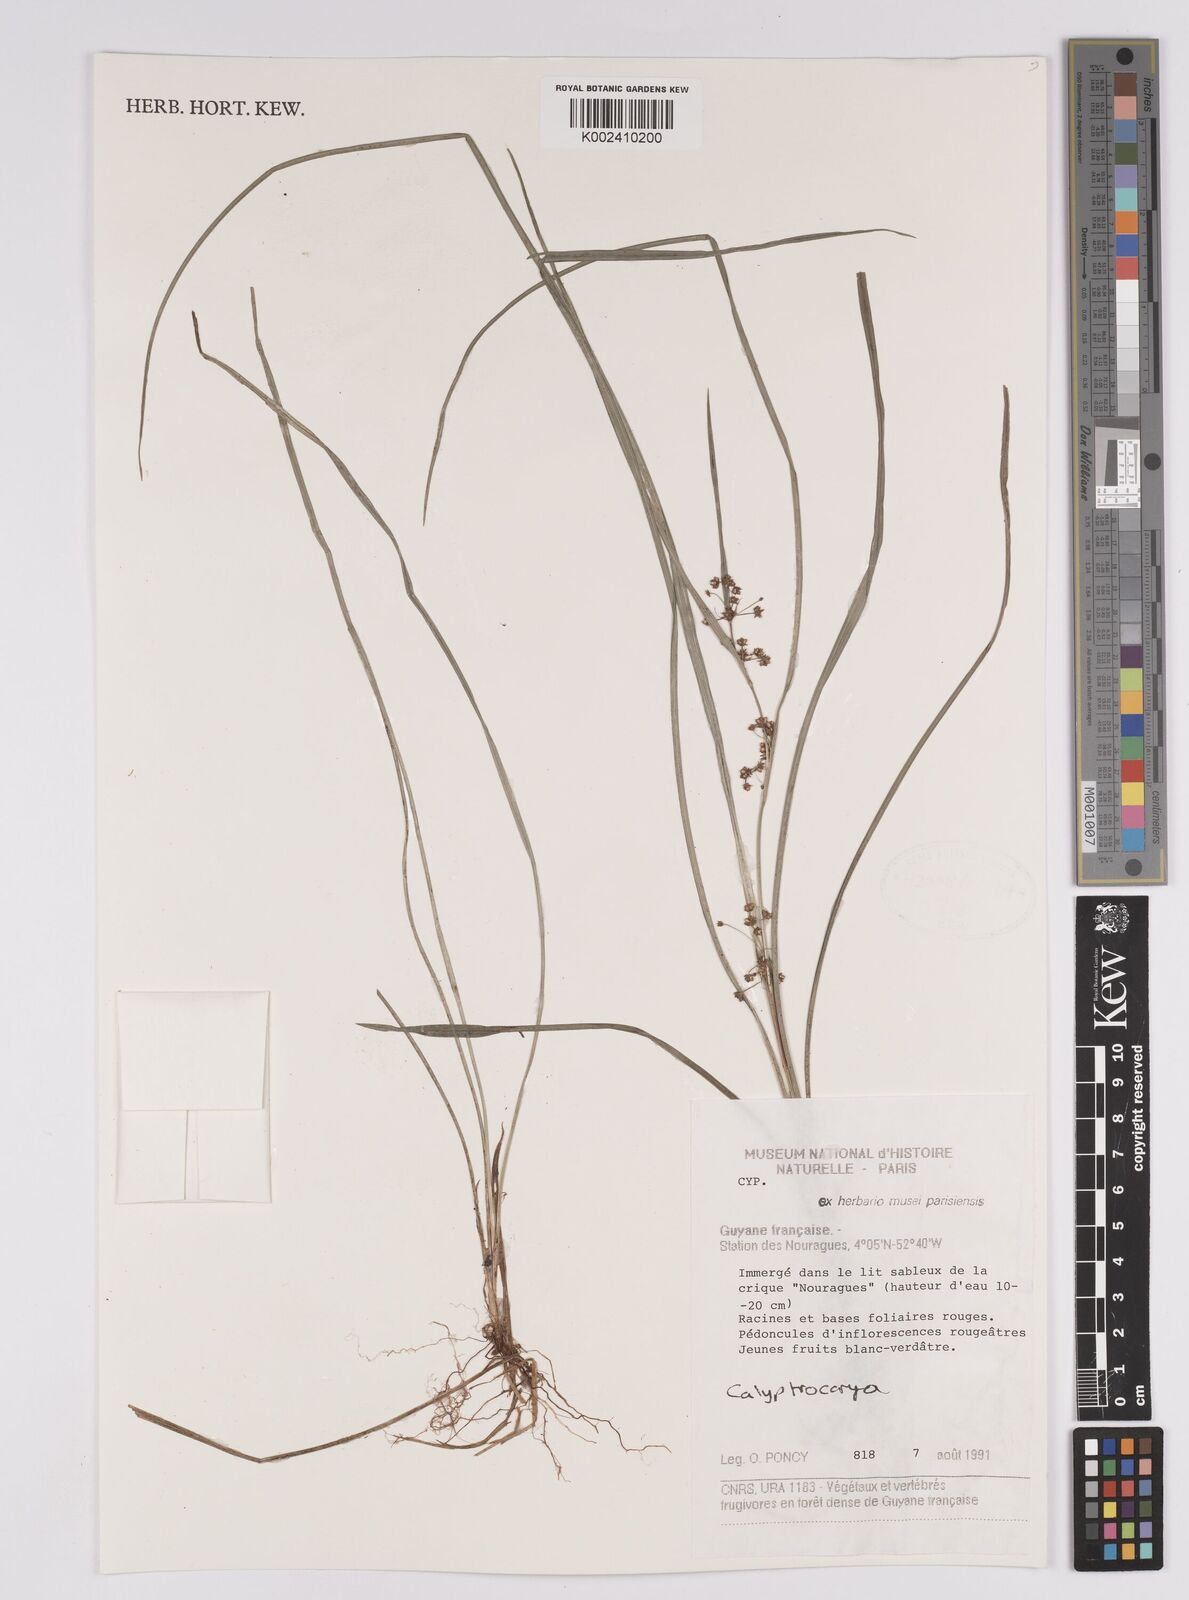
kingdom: Plantae
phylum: Tracheophyta
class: Liliopsida
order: Poales
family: Cyperaceae
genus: Calyptrocarya
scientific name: Calyptrocarya
